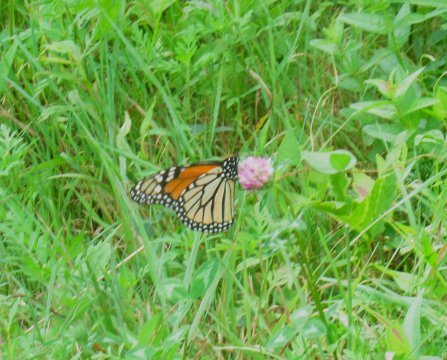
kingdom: Animalia
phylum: Arthropoda
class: Insecta
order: Lepidoptera
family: Nymphalidae
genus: Danaus
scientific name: Danaus plexippus
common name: Monarch
